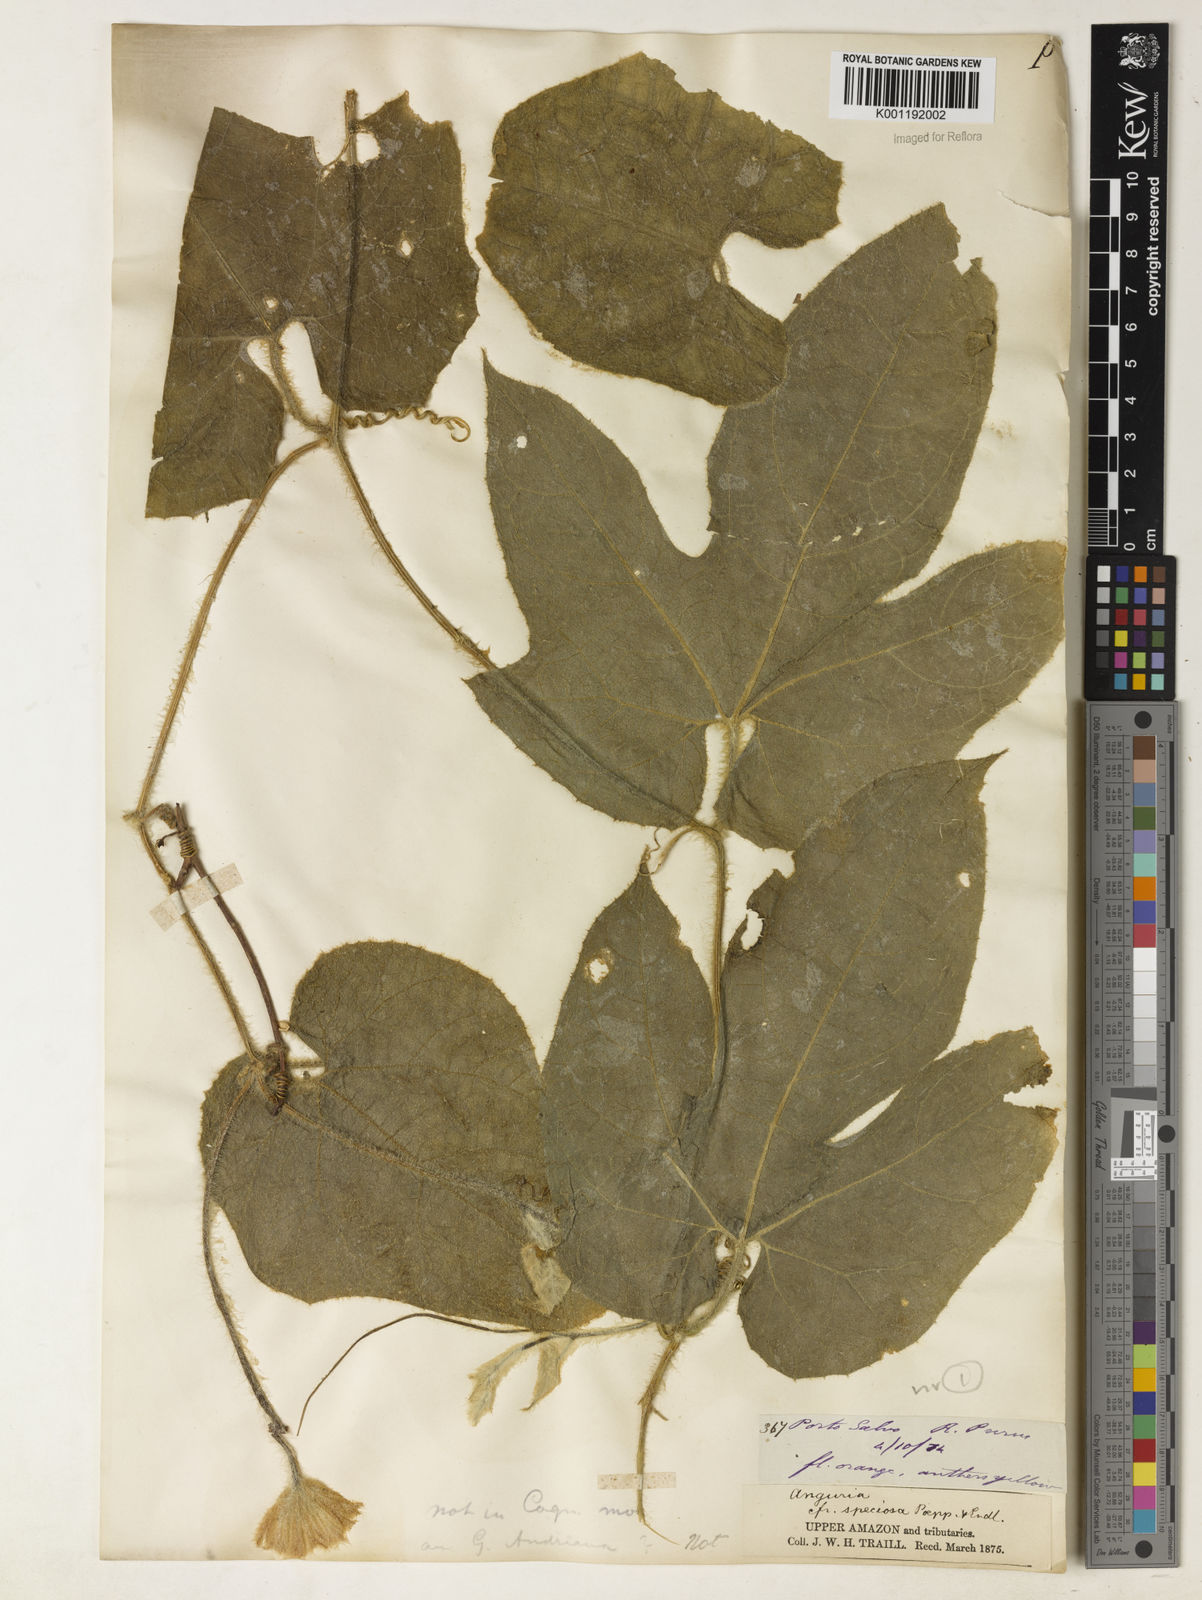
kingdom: Plantae
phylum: Tracheophyta
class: Magnoliopsida
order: Cucurbitales
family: Cucurbitaceae
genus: Gurania
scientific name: Gurania eriantha
